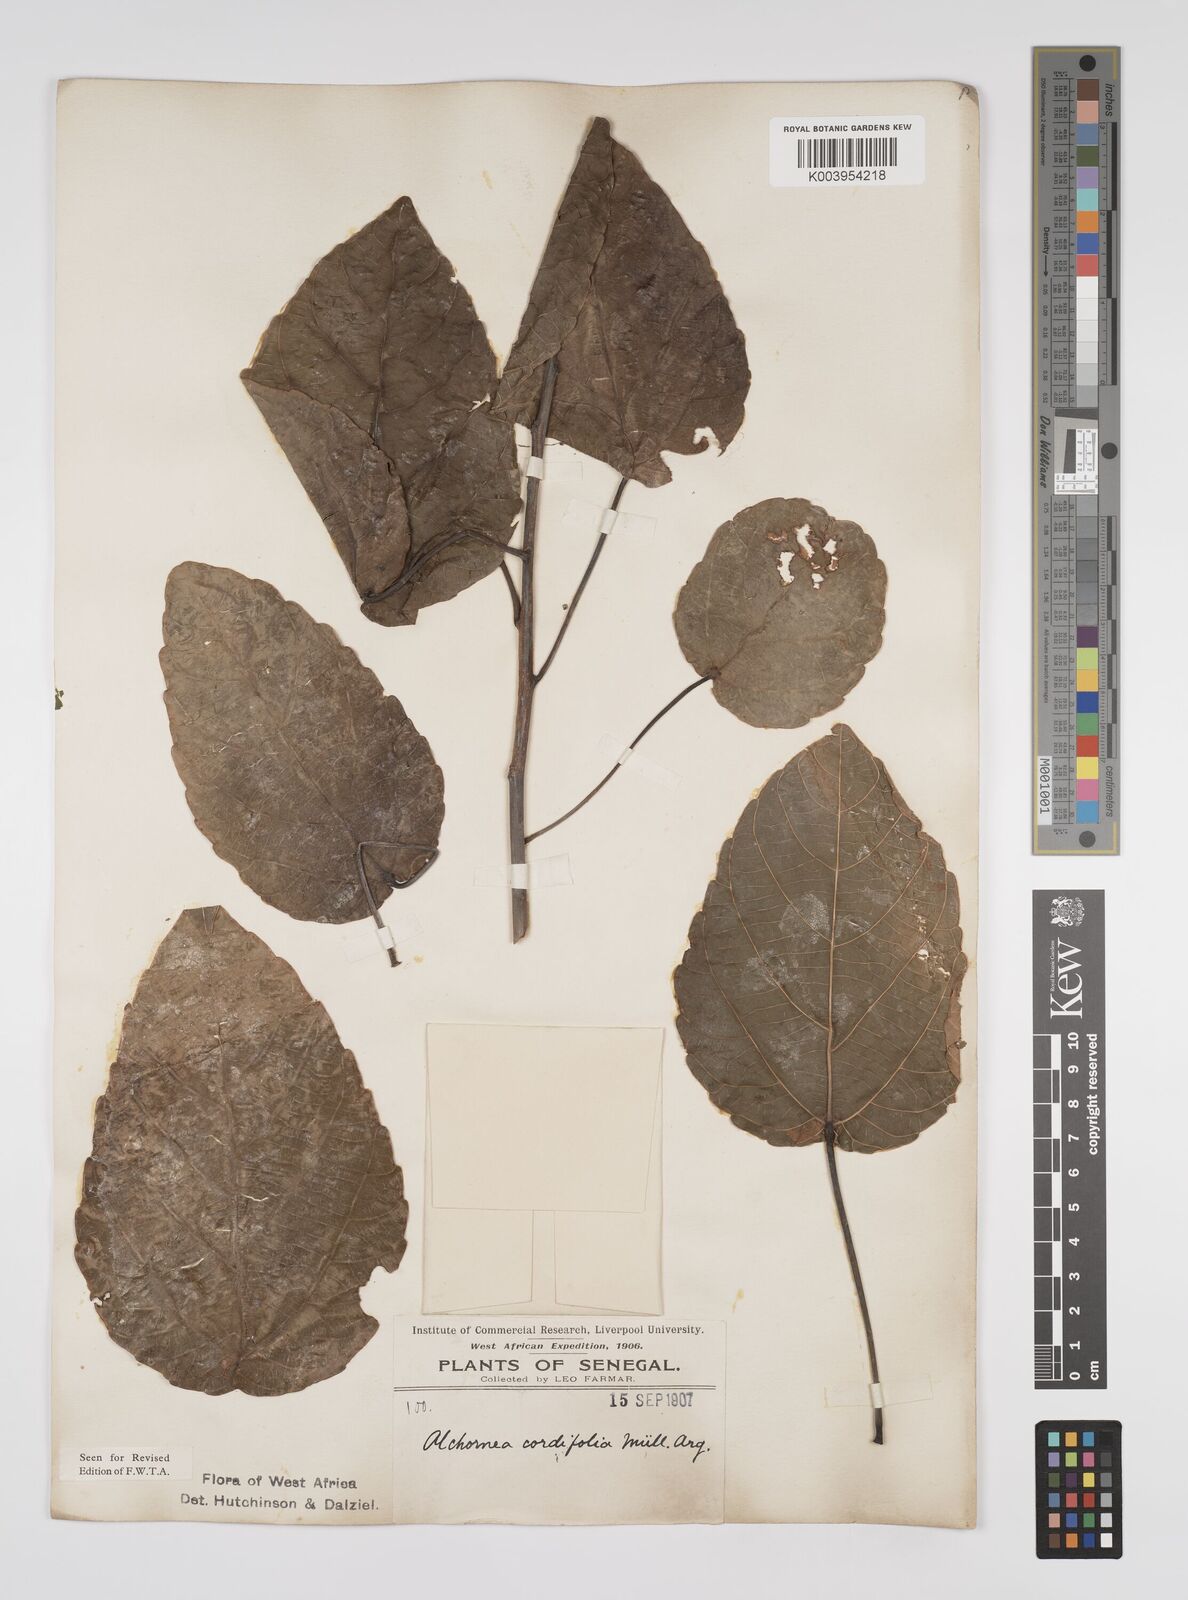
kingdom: Plantae
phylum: Tracheophyta
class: Magnoliopsida
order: Malpighiales
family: Euphorbiaceae
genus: Alchornea
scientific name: Alchornea cordifolia
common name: Christmasbush
